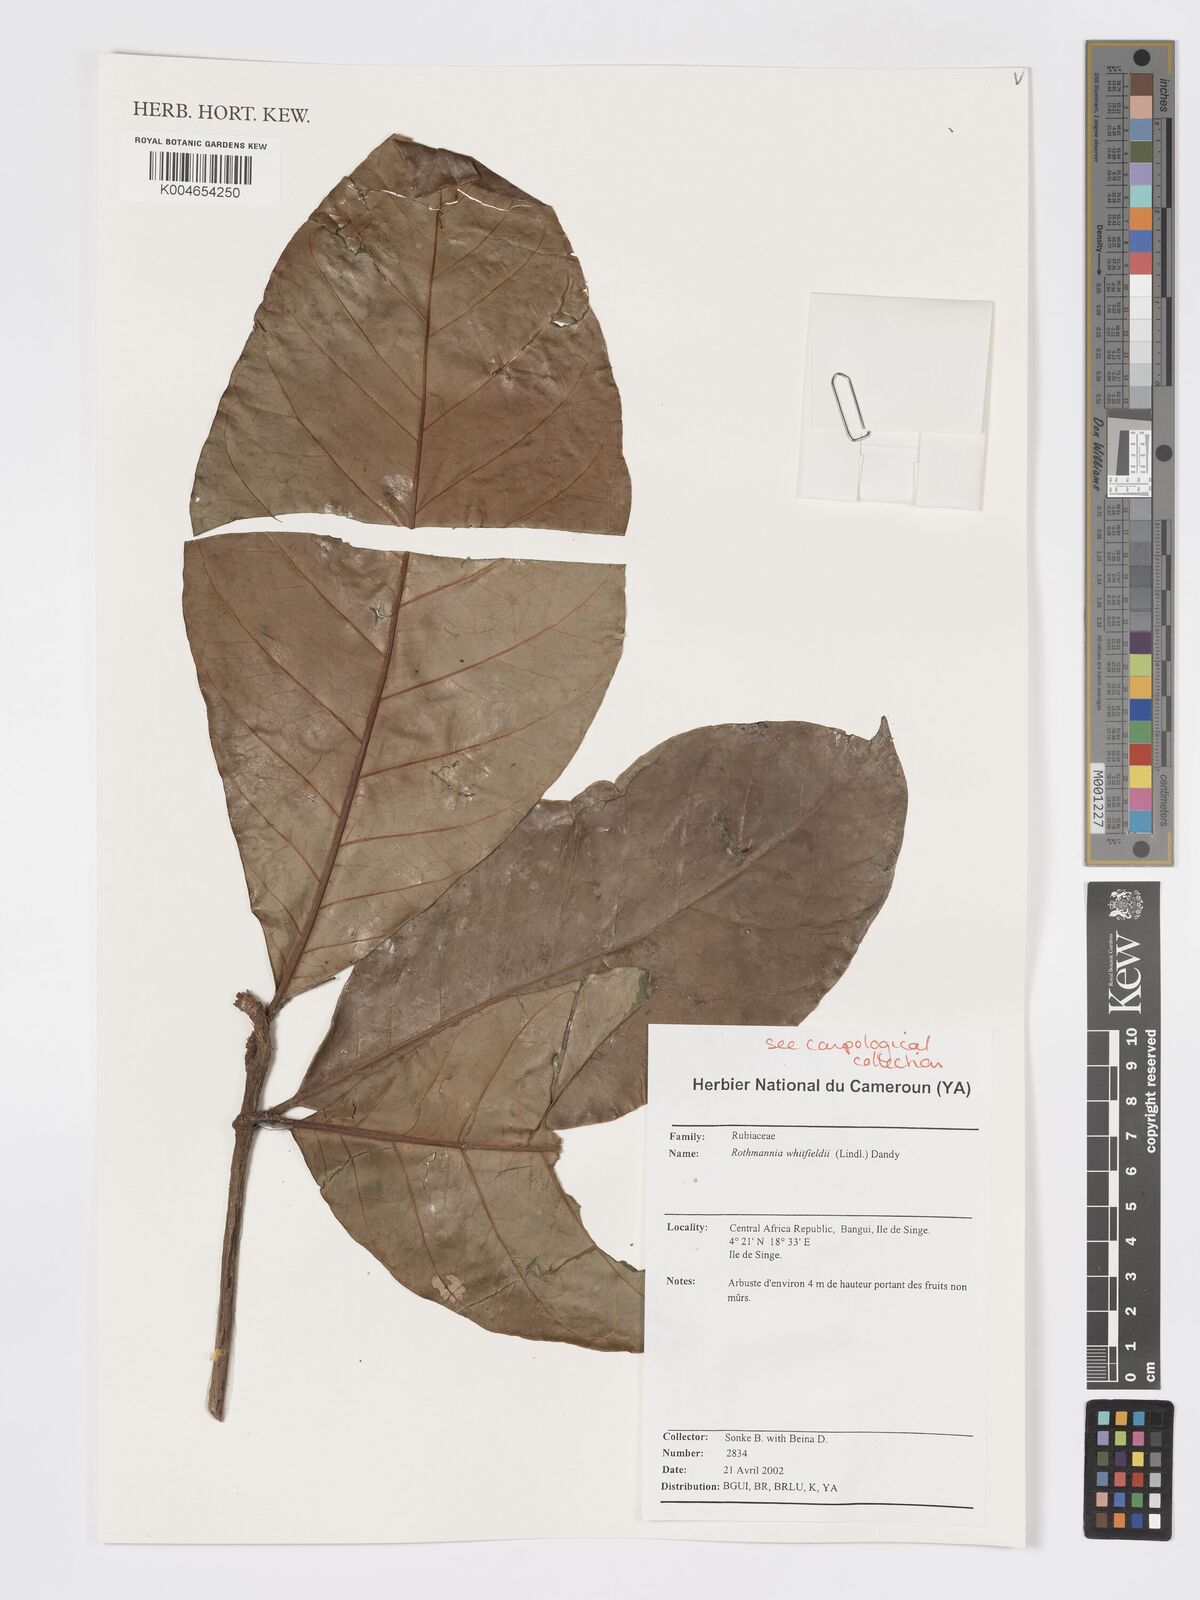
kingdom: Plantae
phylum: Tracheophyta
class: Magnoliopsida
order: Gentianales
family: Rubiaceae
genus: Rothmannia
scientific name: Rothmannia whitfieldii
